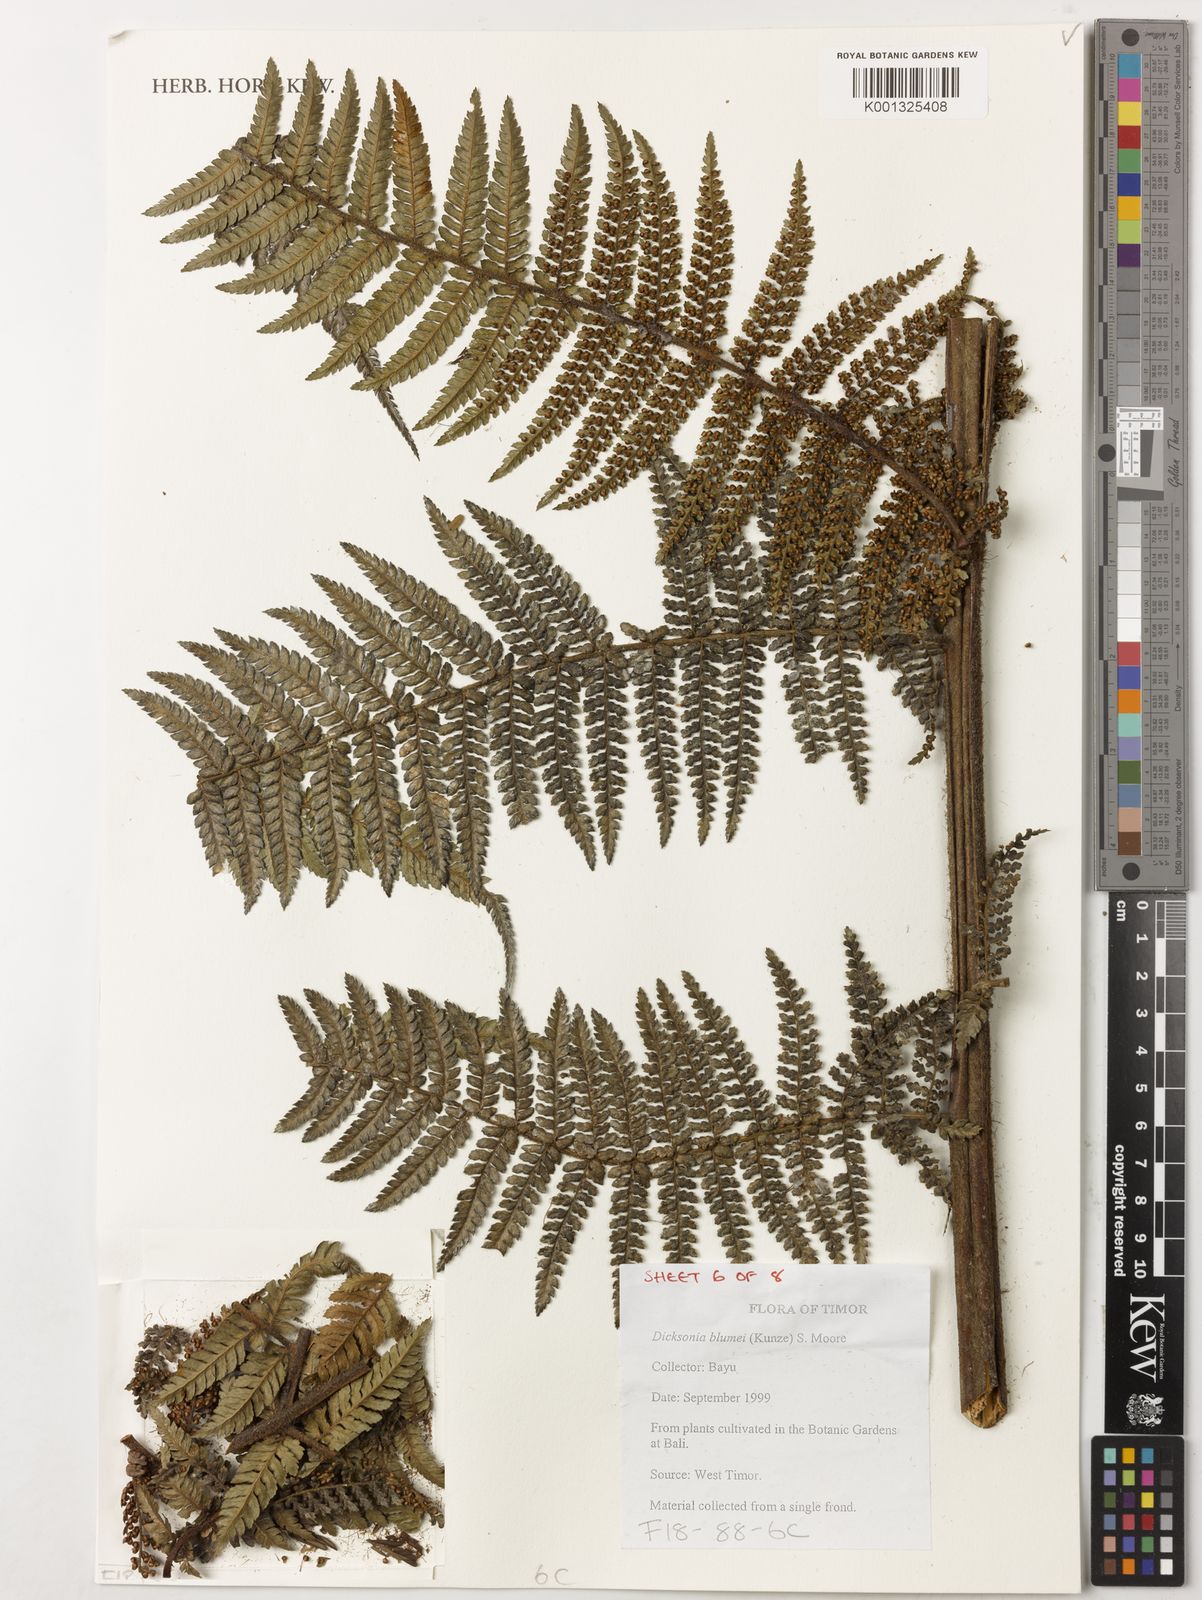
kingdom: Plantae
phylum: Tracheophyta
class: Polypodiopsida
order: Cyatheales
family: Dicksoniaceae
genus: Dicksonia
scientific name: Dicksonia
